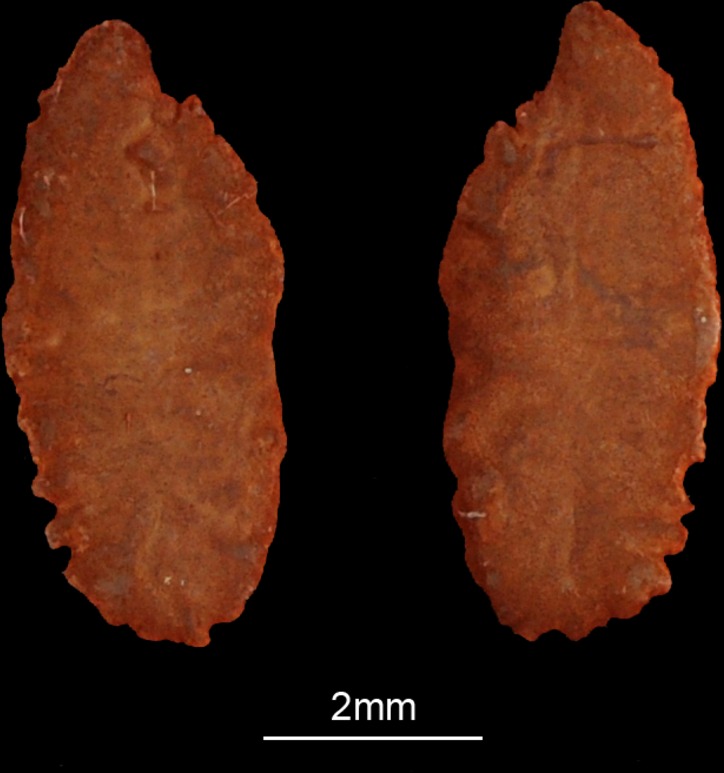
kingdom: Animalia
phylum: Chordata
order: Mugiliformes
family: Mugilidae
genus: Planiliza
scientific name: Planiliza macrolepis
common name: Largescale mullet
